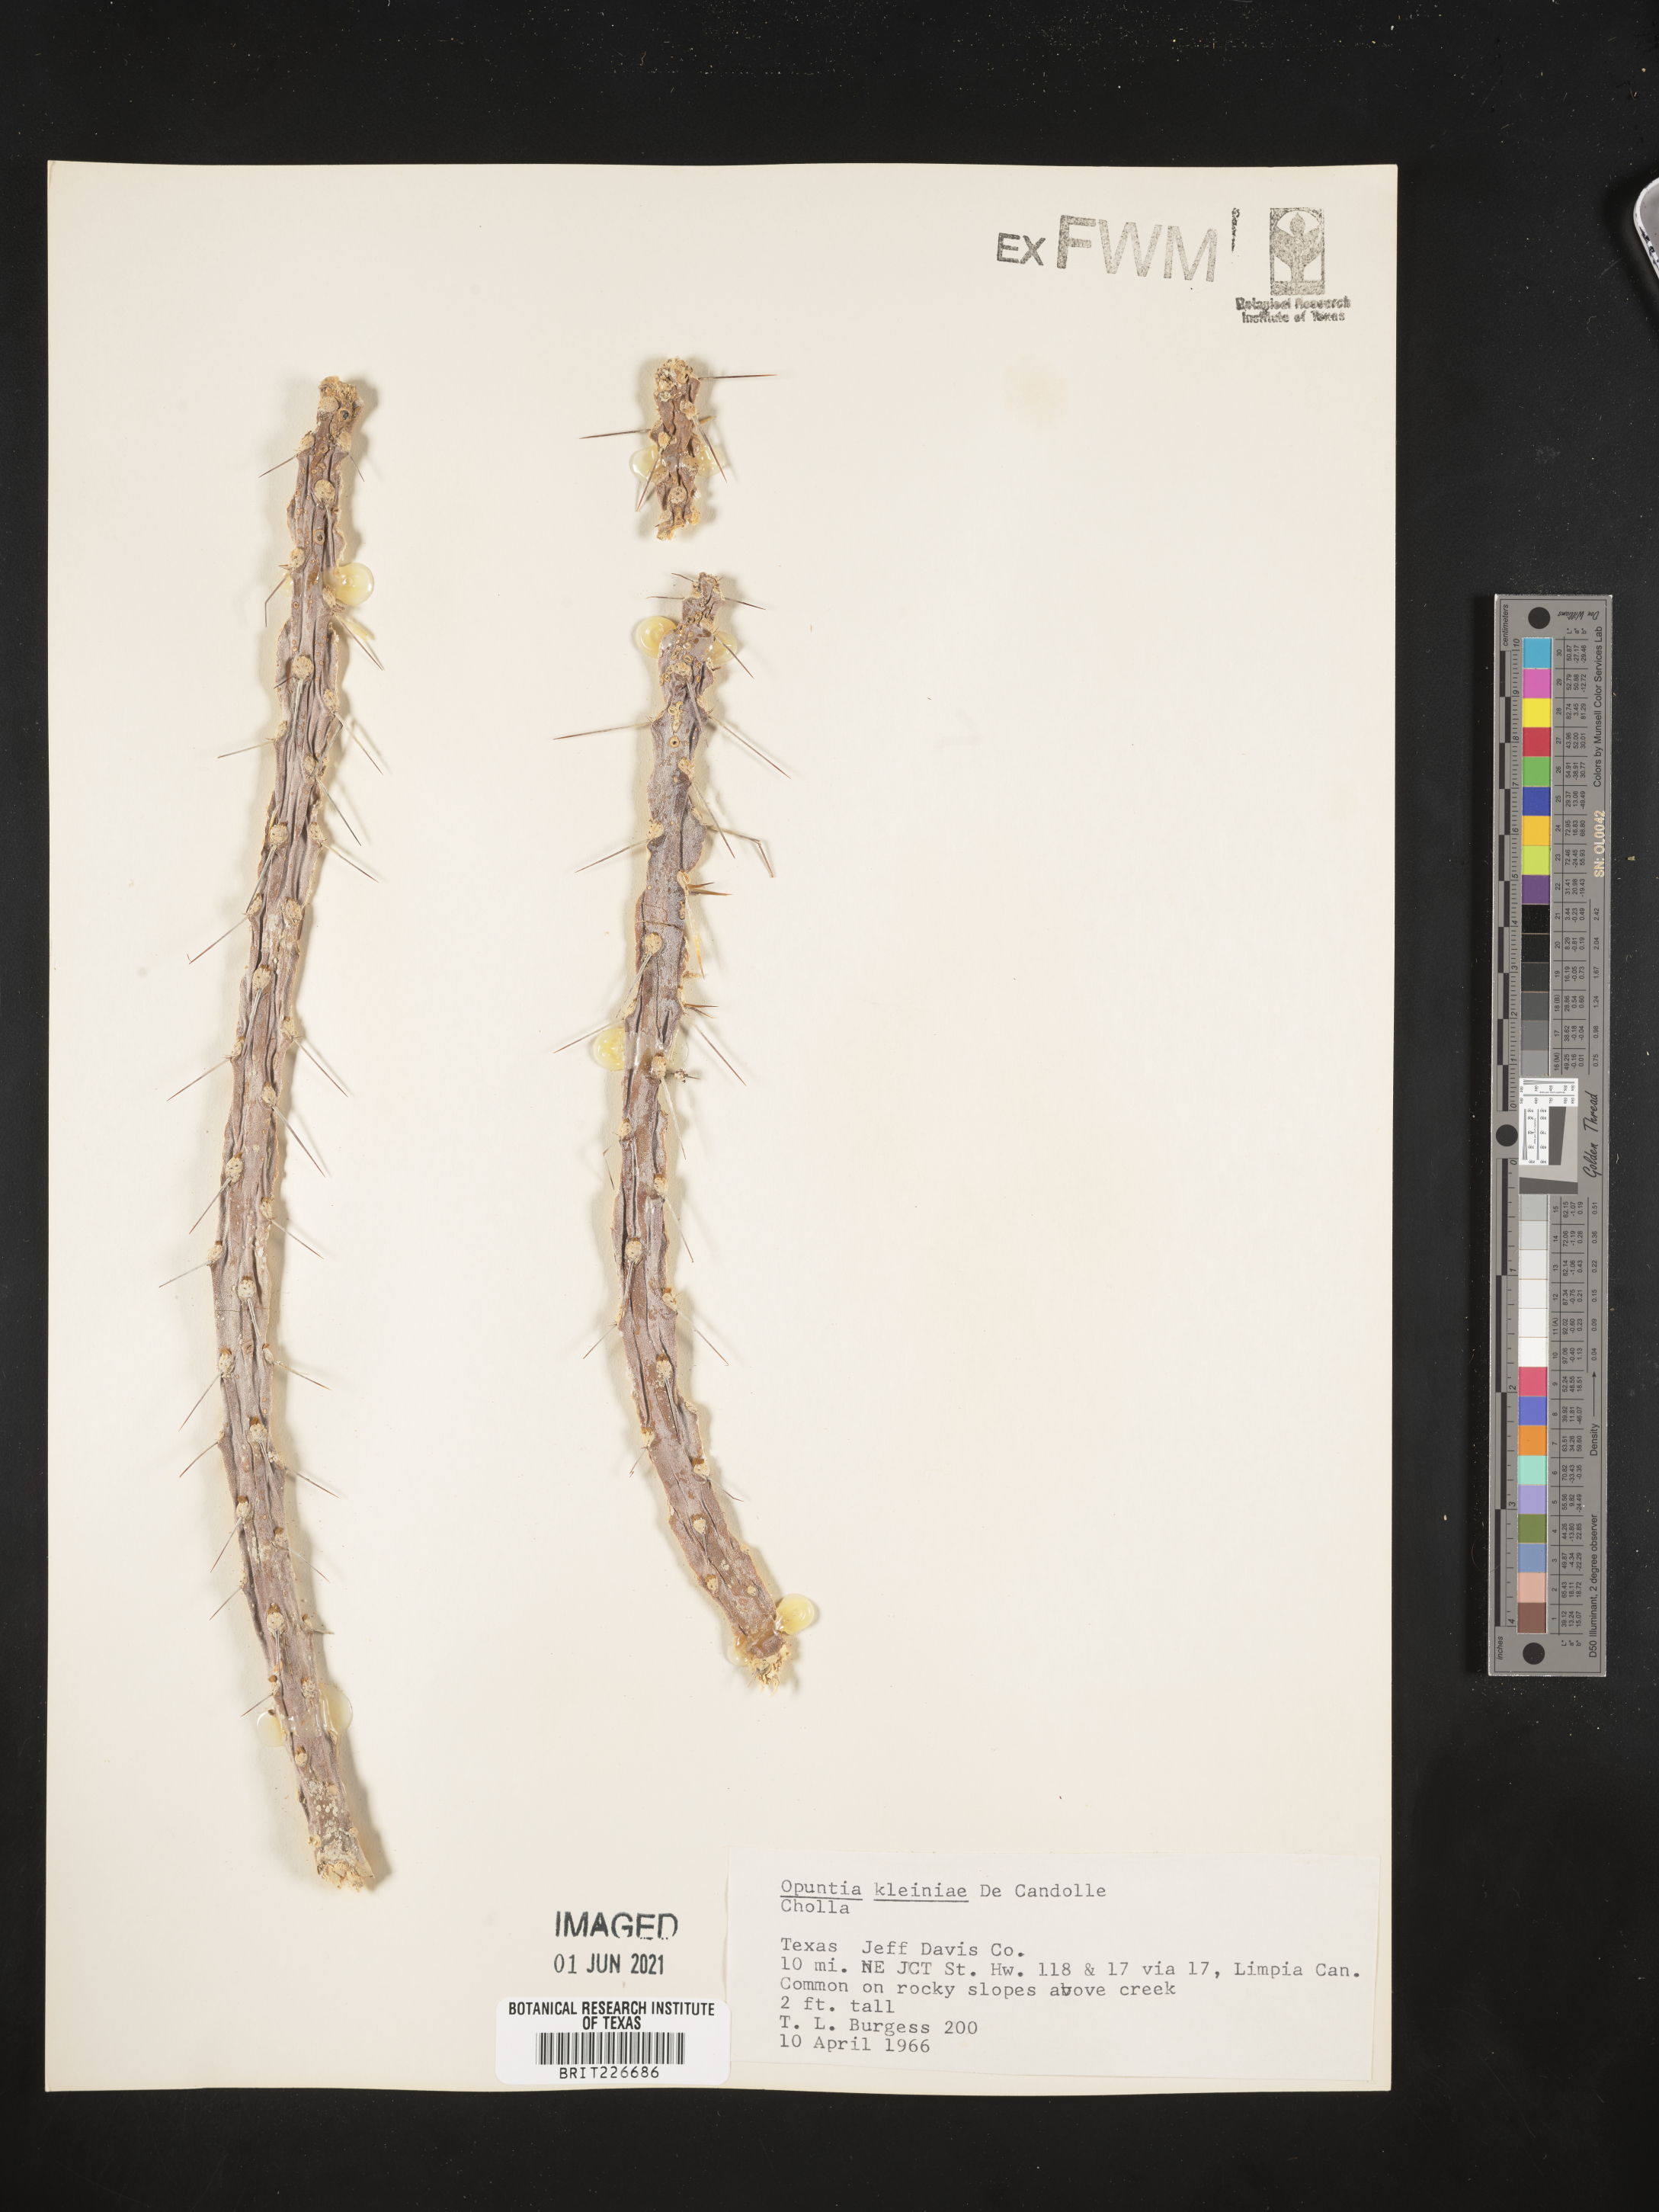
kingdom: Plantae
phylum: Tracheophyta
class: Magnoliopsida
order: Caryophyllales
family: Cactaceae
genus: Cylindropuntia
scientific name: Cylindropuntia kleiniae
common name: Klein's cholla
